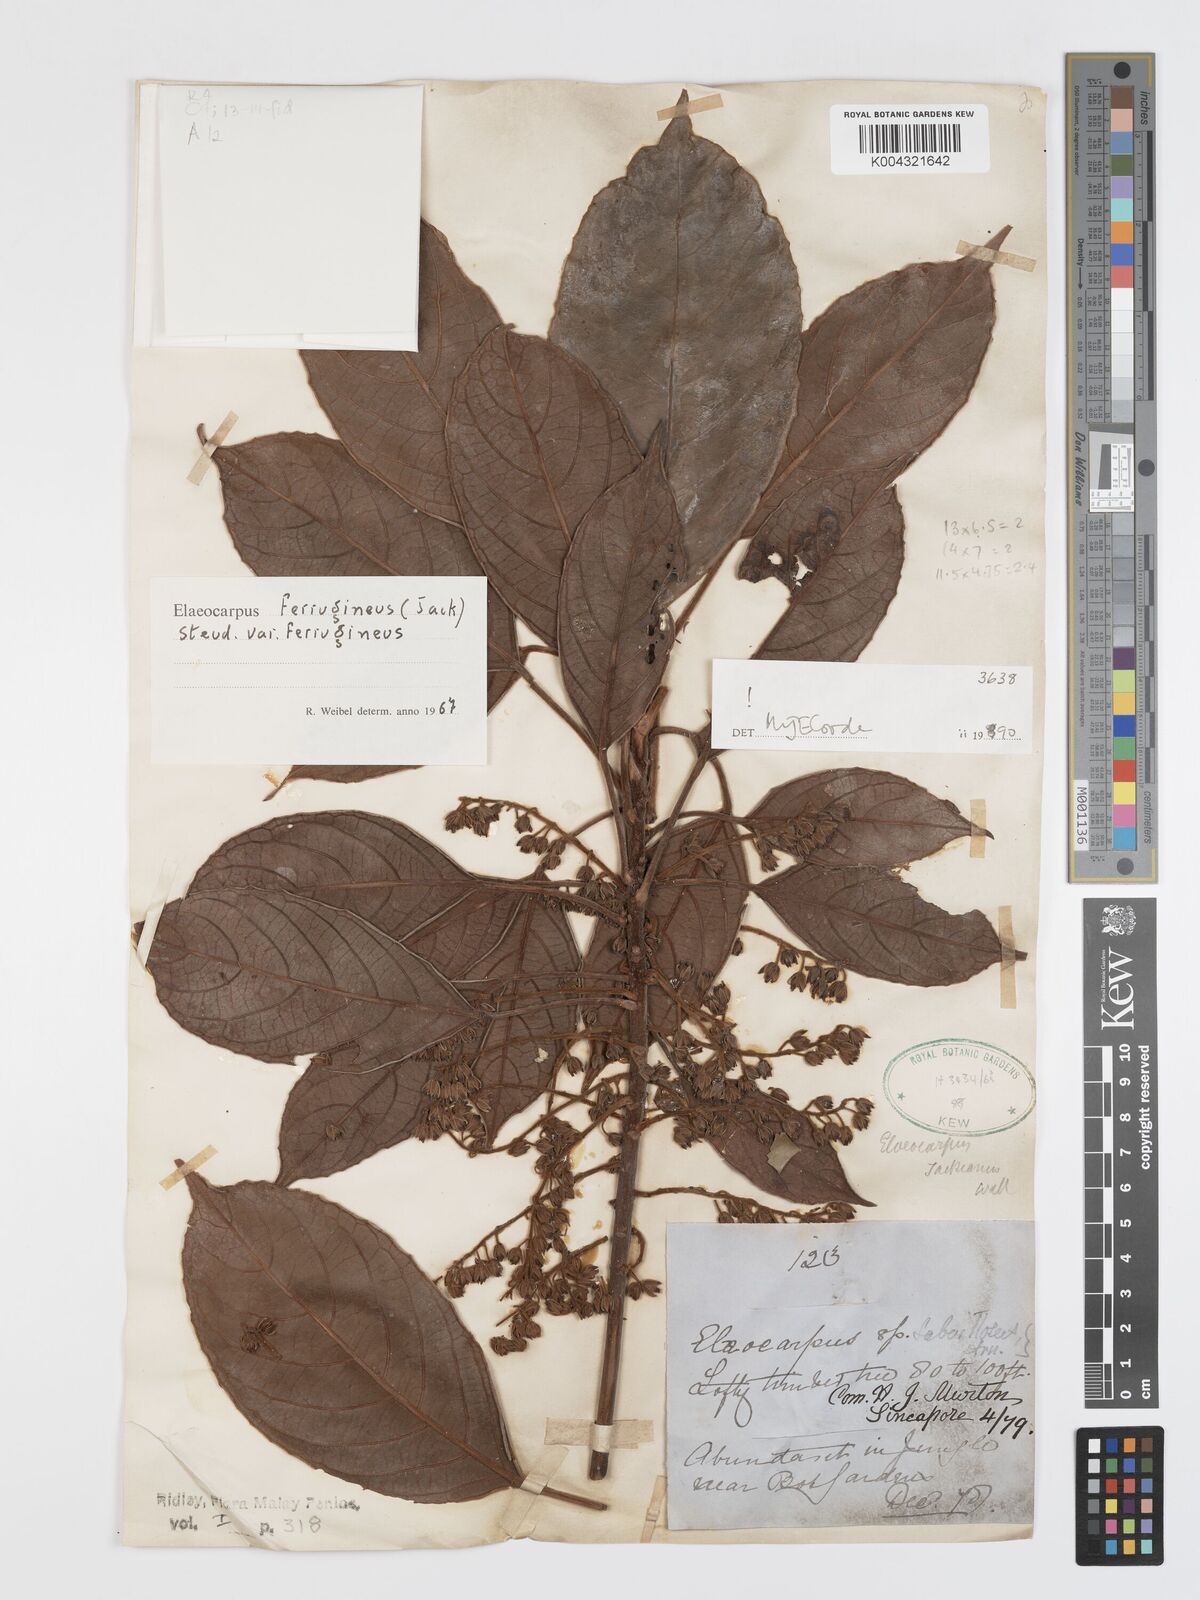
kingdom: Plantae
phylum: Tracheophyta
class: Magnoliopsida
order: Oxalidales
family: Elaeocarpaceae
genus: Elaeocarpus
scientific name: Elaeocarpus ferrugineus
